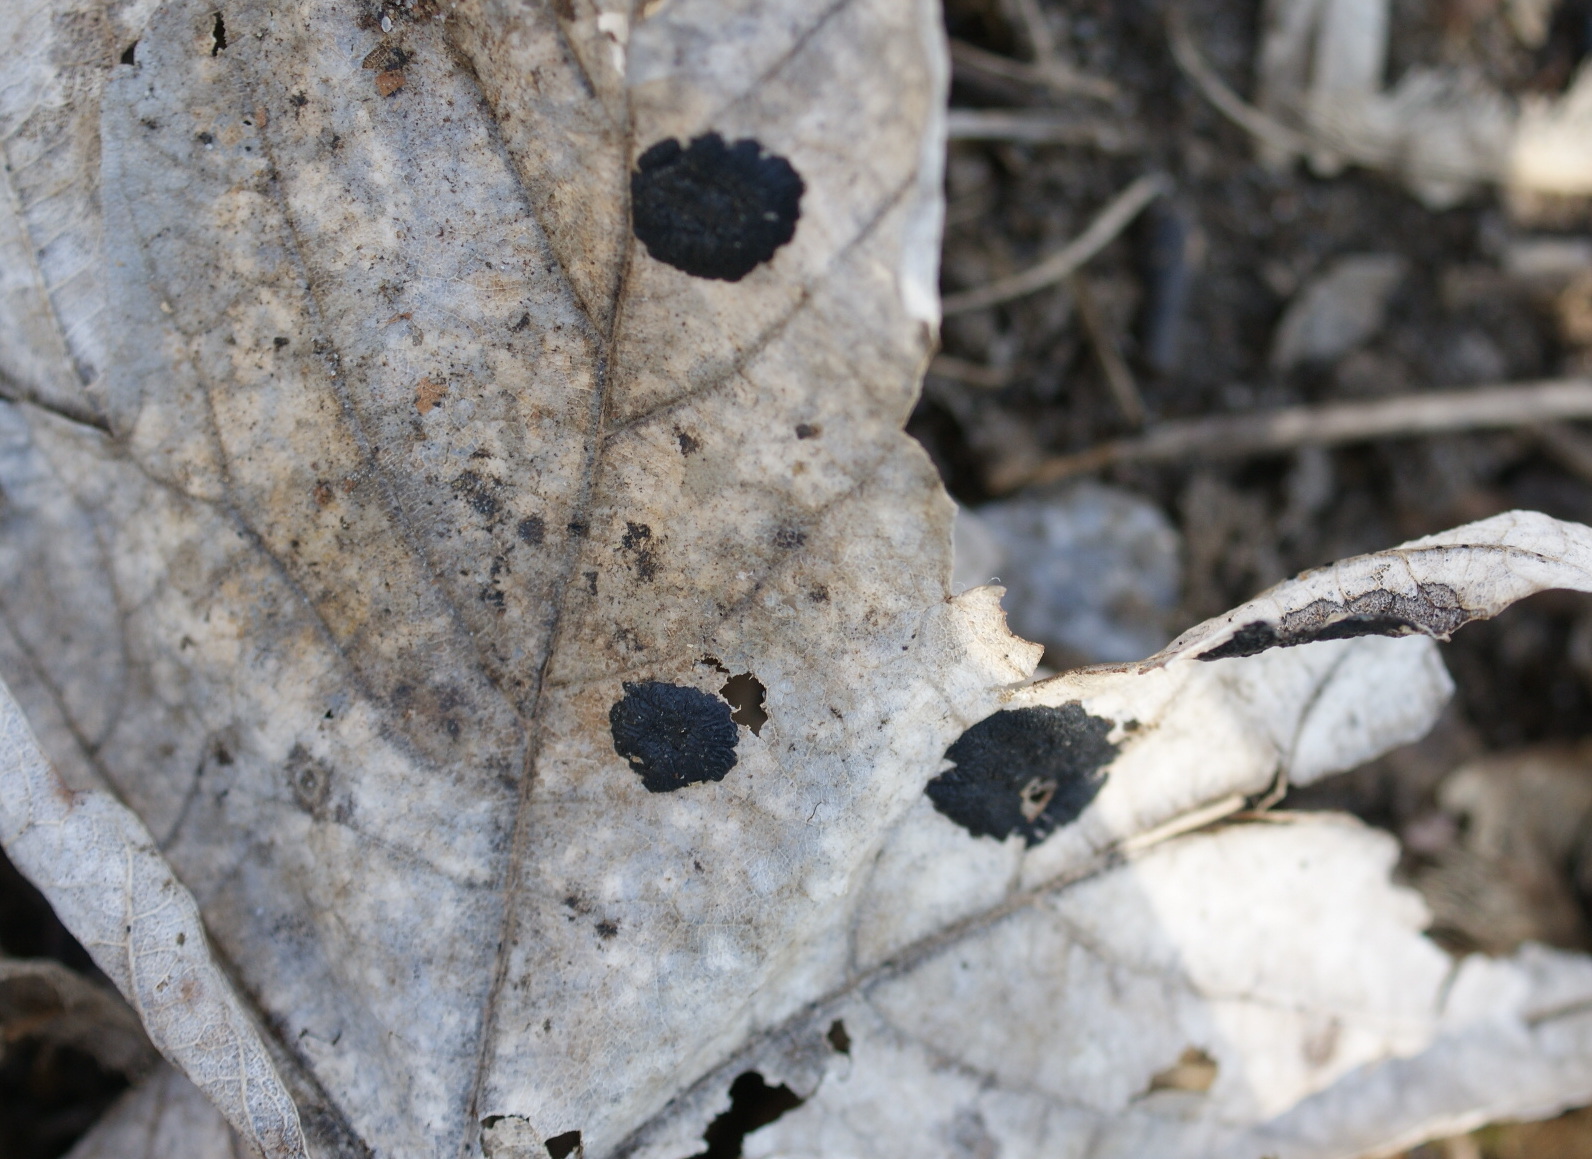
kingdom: Fungi
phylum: Ascomycota
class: Leotiomycetes
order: Rhytismatales
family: Rhytismataceae
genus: Rhytisma
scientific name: Rhytisma acerinum
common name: ahorn-rynkeplet
